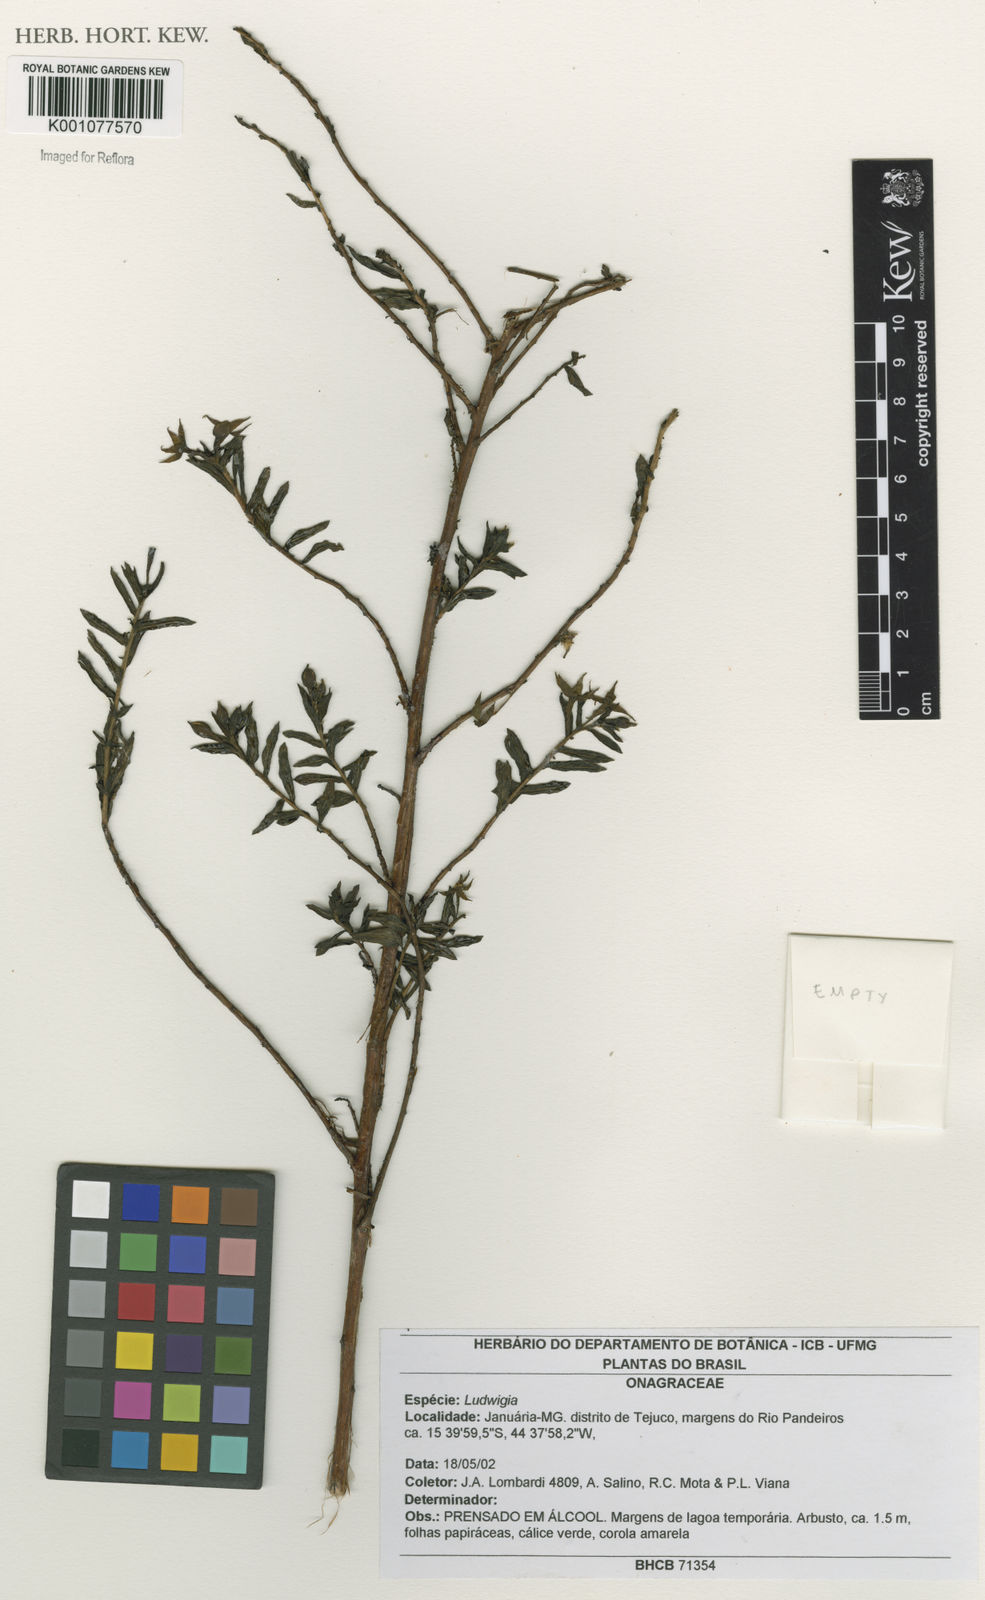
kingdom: Plantae
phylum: Tracheophyta
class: Magnoliopsida
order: Myrtales
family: Onagraceae
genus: Ludwigia
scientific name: Ludwigia
